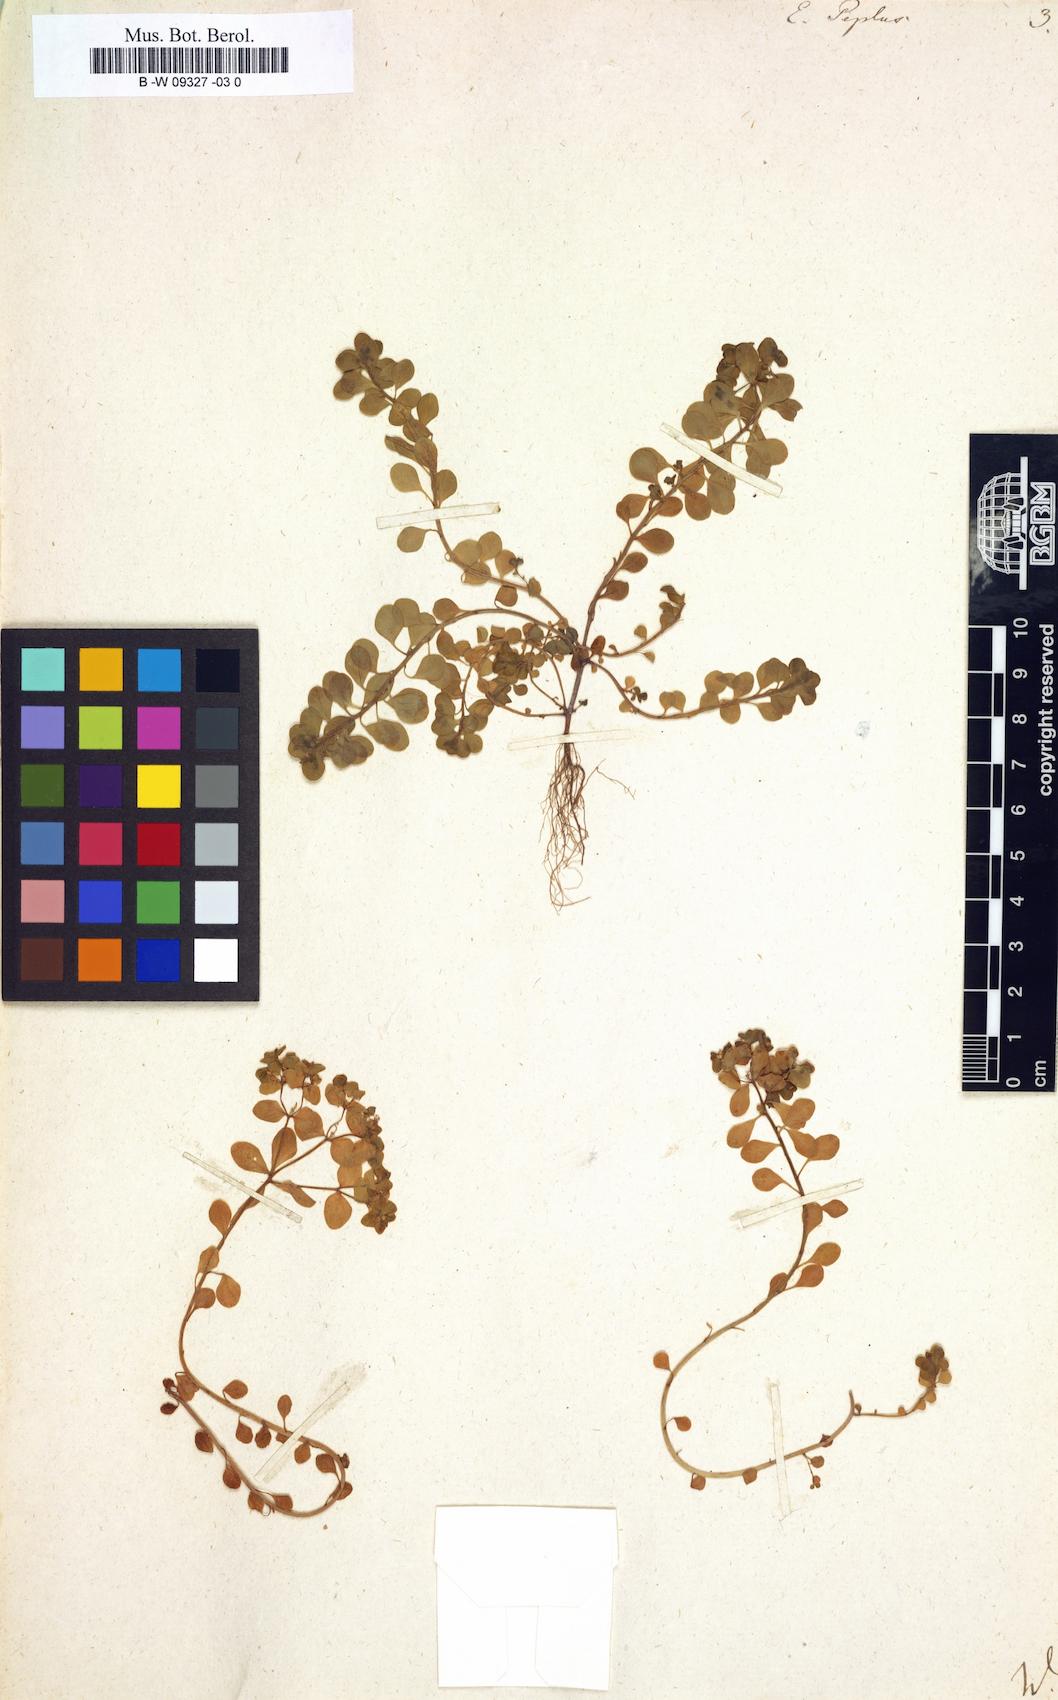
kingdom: Plantae
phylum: Tracheophyta
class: Magnoliopsida
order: Malpighiales
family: Euphorbiaceae
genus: Euphorbia
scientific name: Euphorbia peplus
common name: Petty spurge
